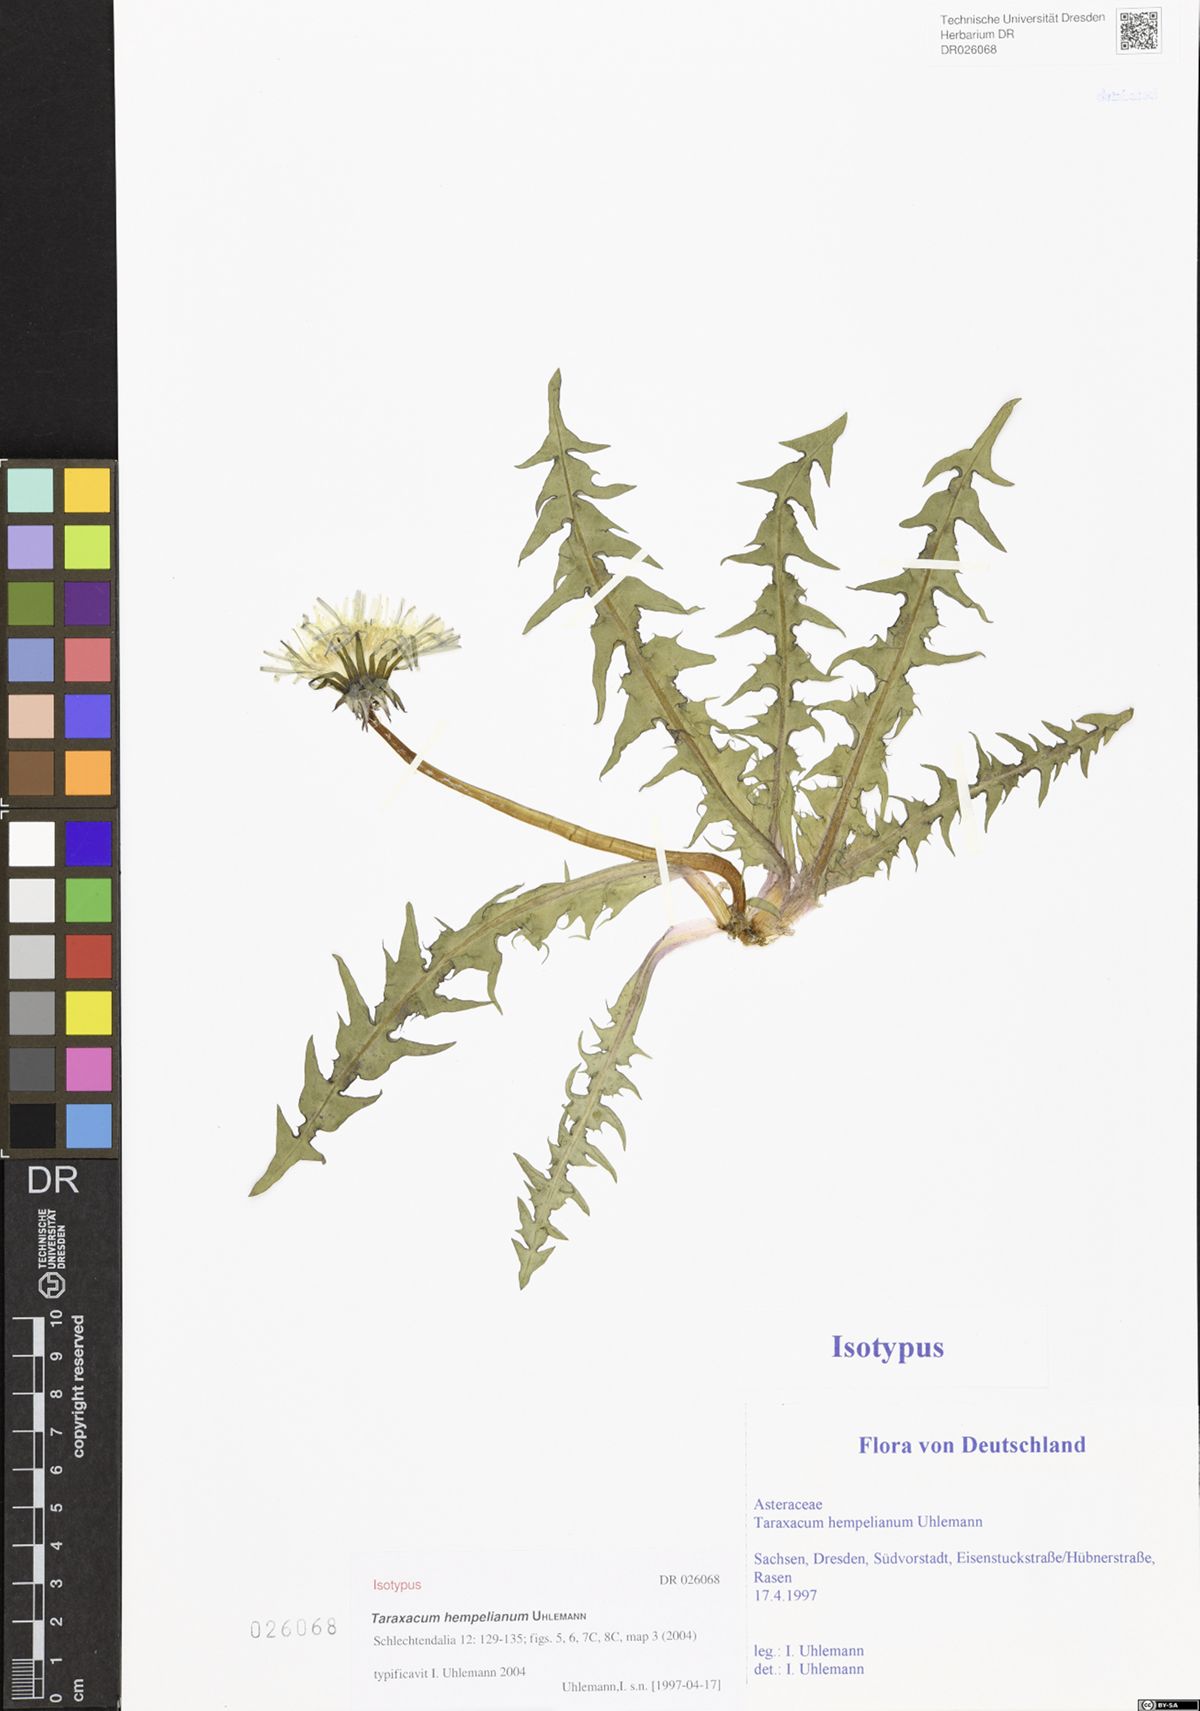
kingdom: Plantae
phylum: Tracheophyta
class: Magnoliopsida
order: Asterales
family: Asteraceae
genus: Taraxacum
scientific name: Taraxacum hempelianum
